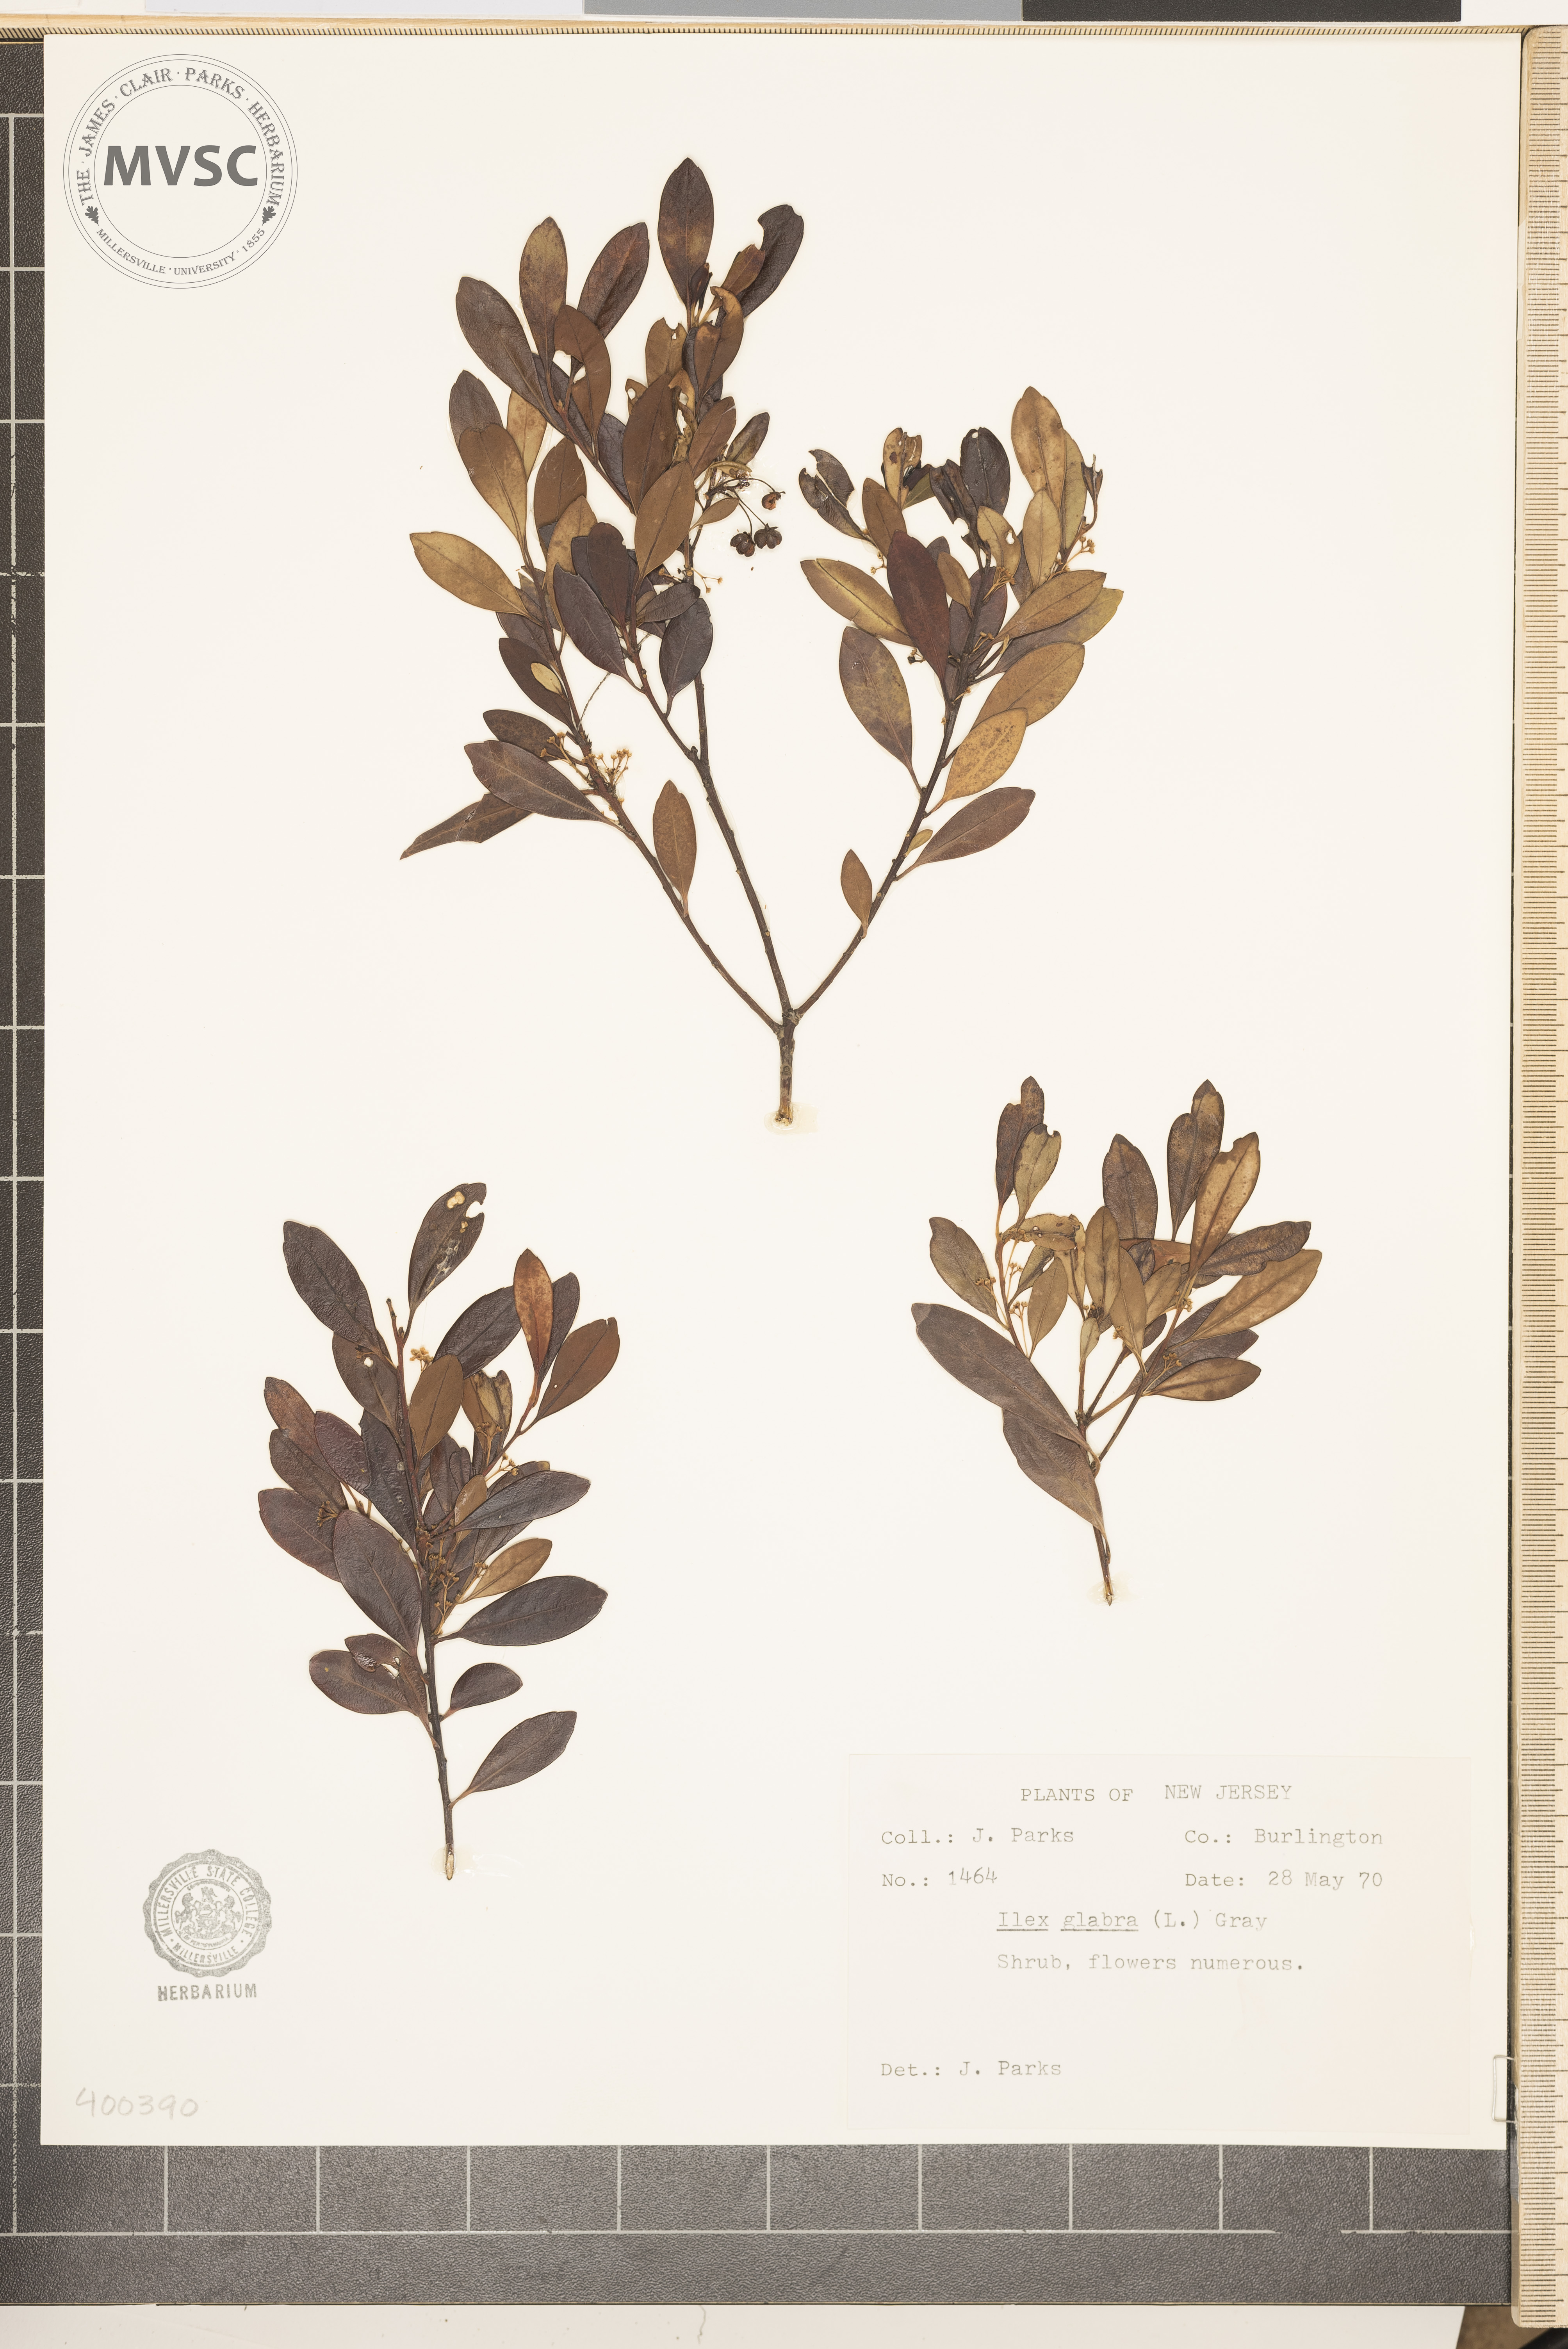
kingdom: Plantae
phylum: Tracheophyta
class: Magnoliopsida
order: Aquifoliales
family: Aquifoliaceae
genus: Ilex
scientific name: Ilex glabra
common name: Bitter gallberry
